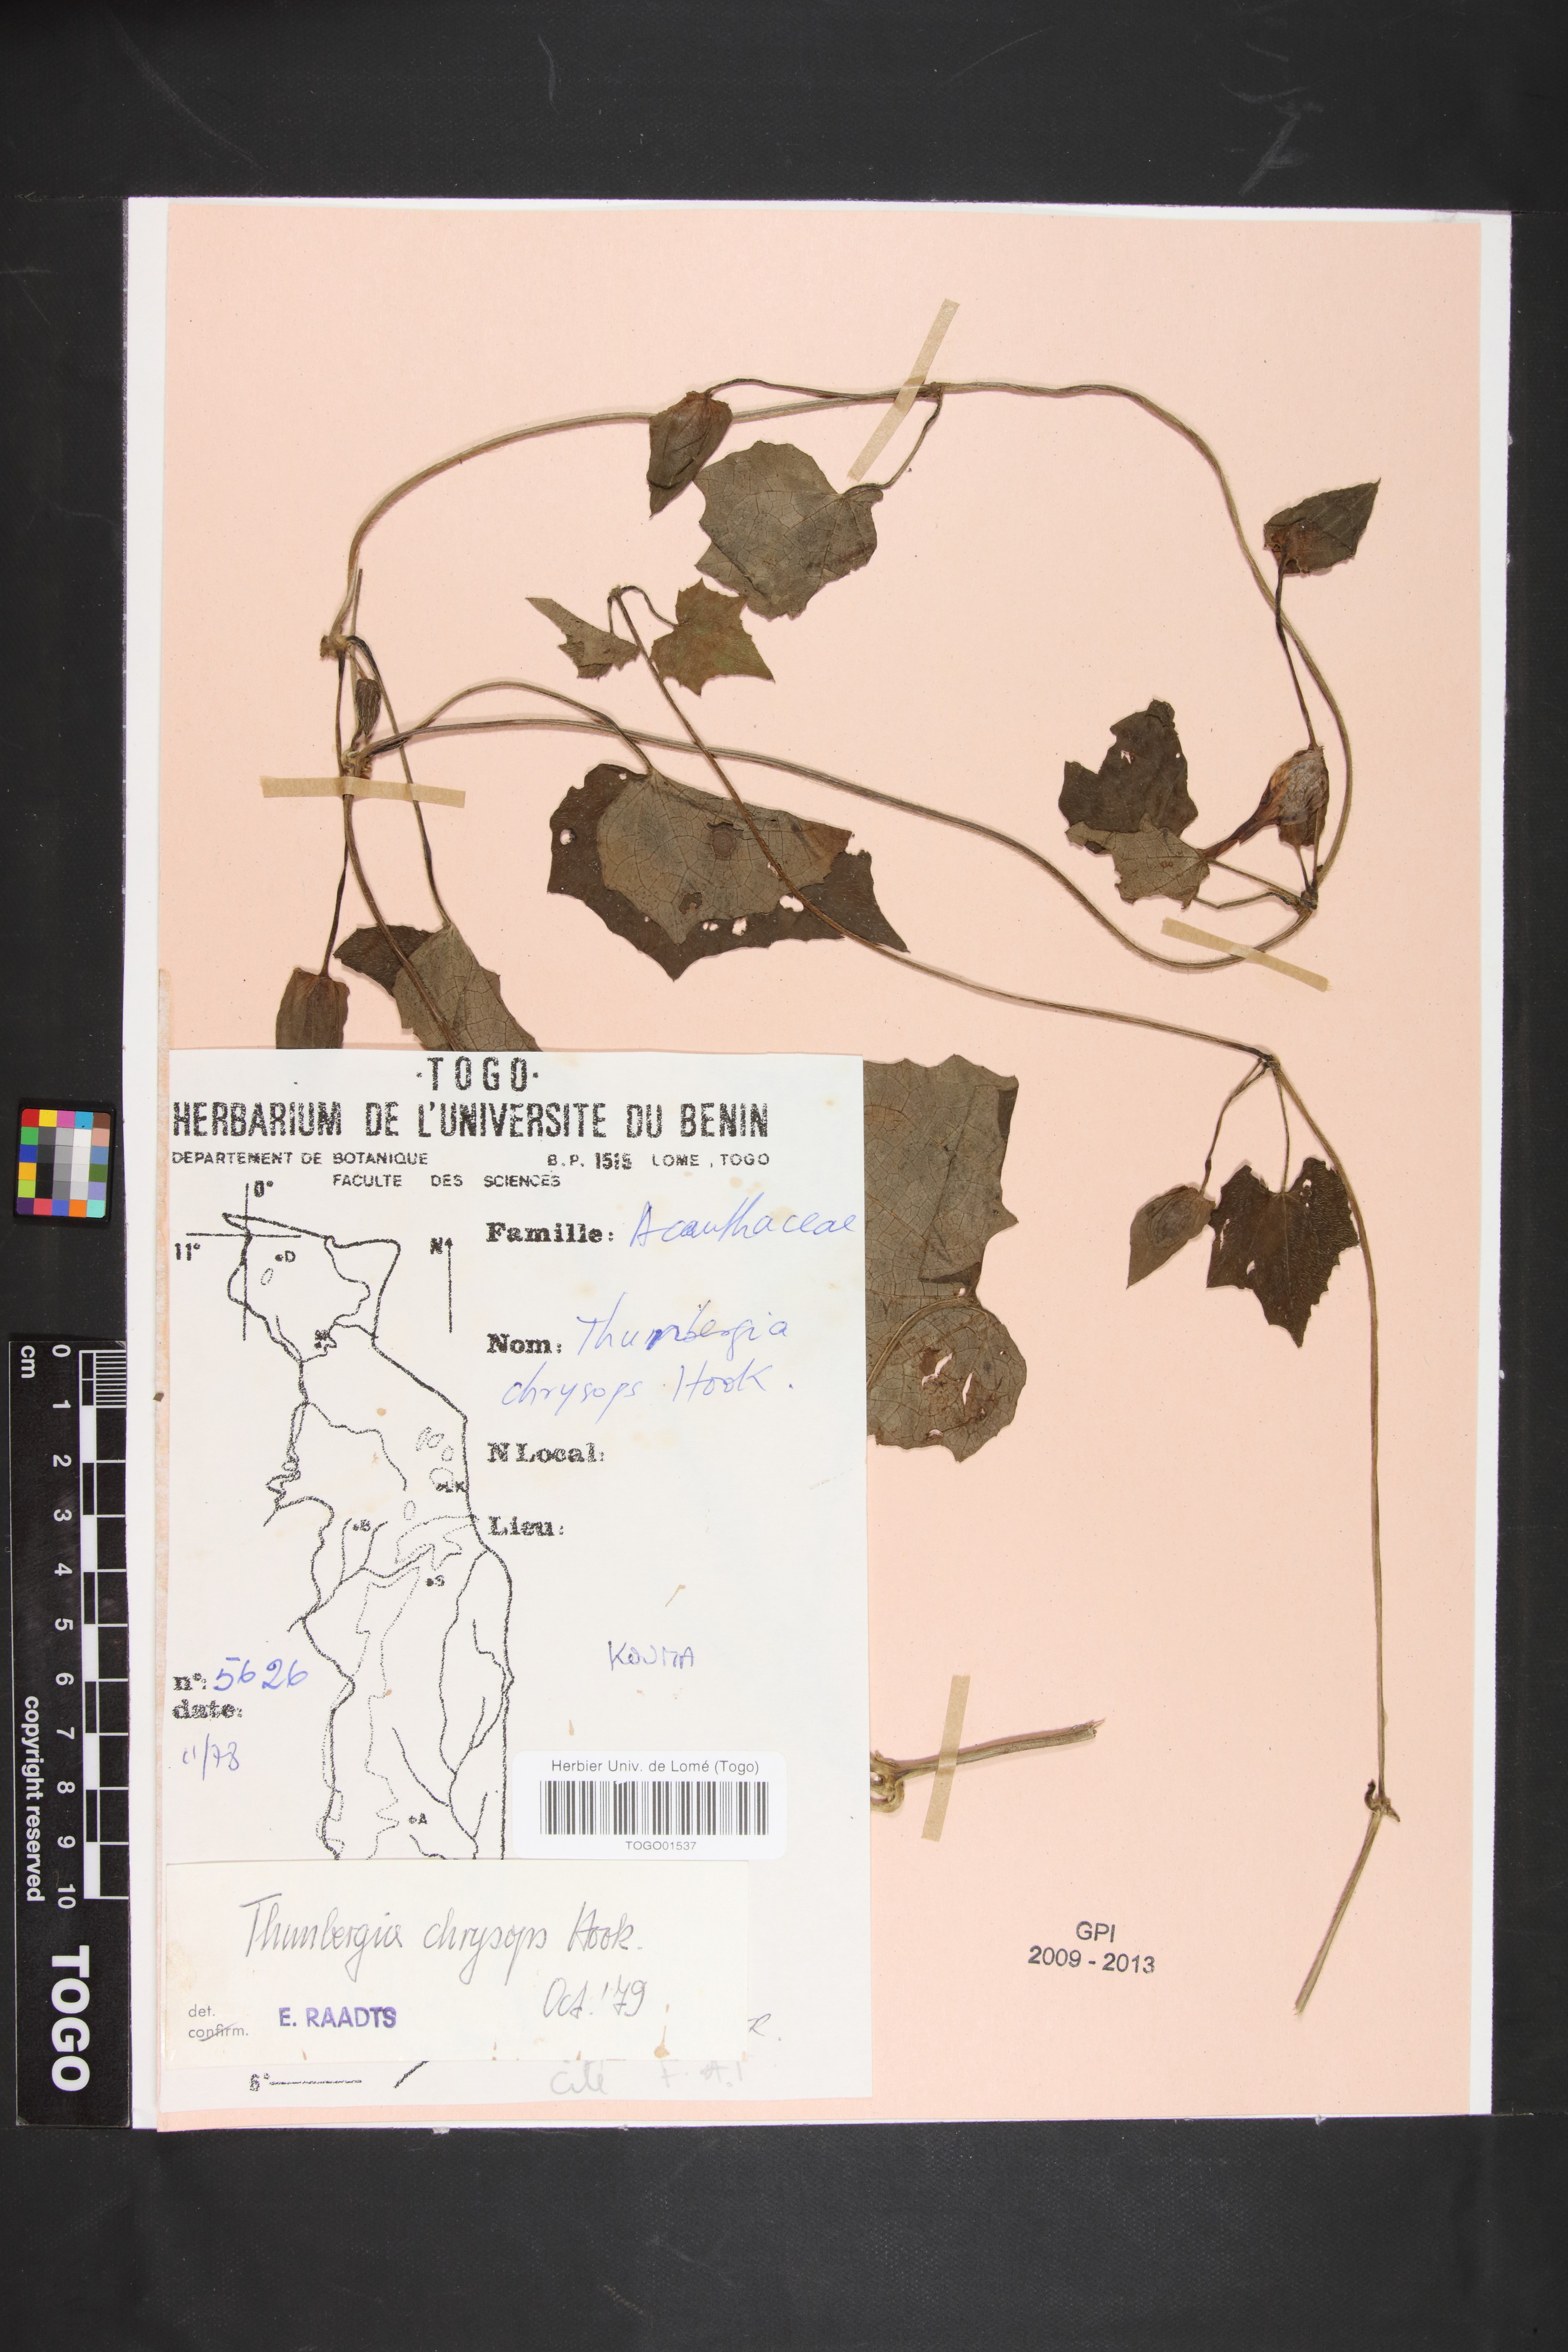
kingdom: Plantae
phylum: Tracheophyta
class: Magnoliopsida
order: Lamiales
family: Acanthaceae
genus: Thunbergia
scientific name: Thunbergia chrysops
